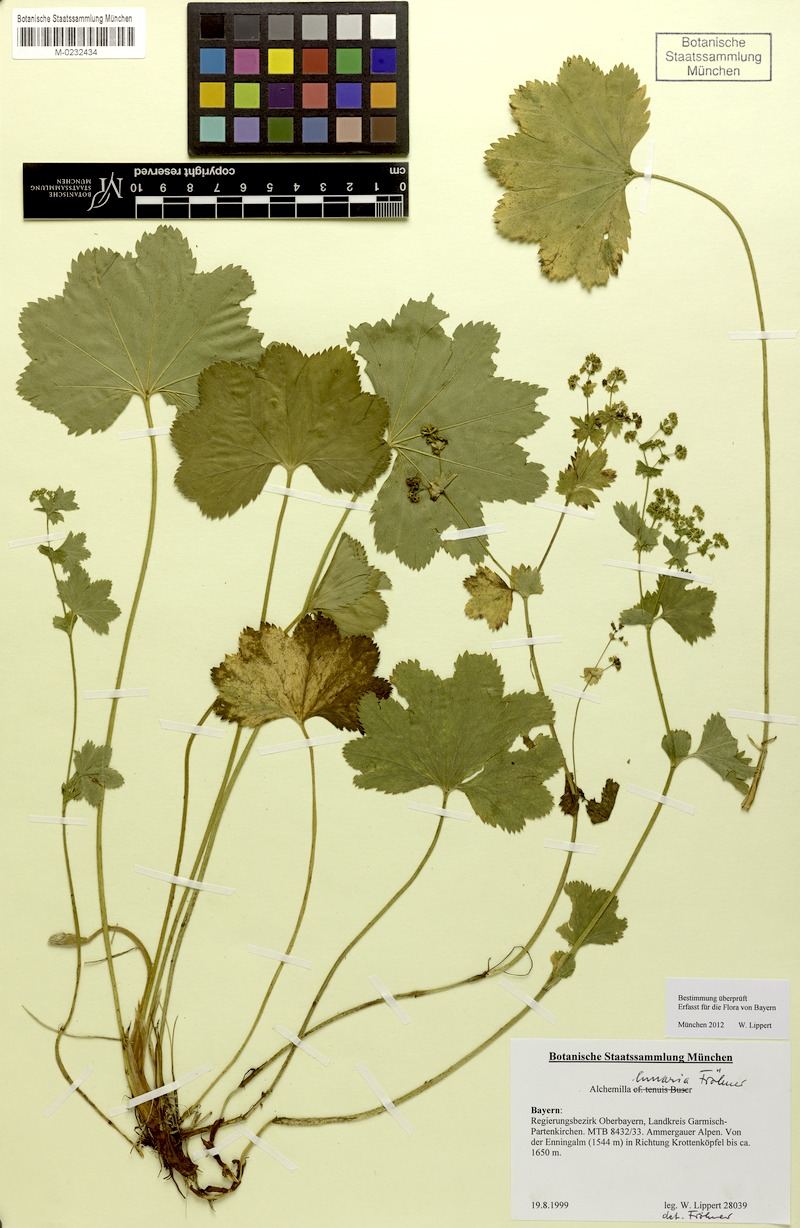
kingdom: Plantae
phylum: Tracheophyta
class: Magnoliopsida
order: Rosales
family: Rosaceae
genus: Alchemilla
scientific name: Alchemilla lunaria
